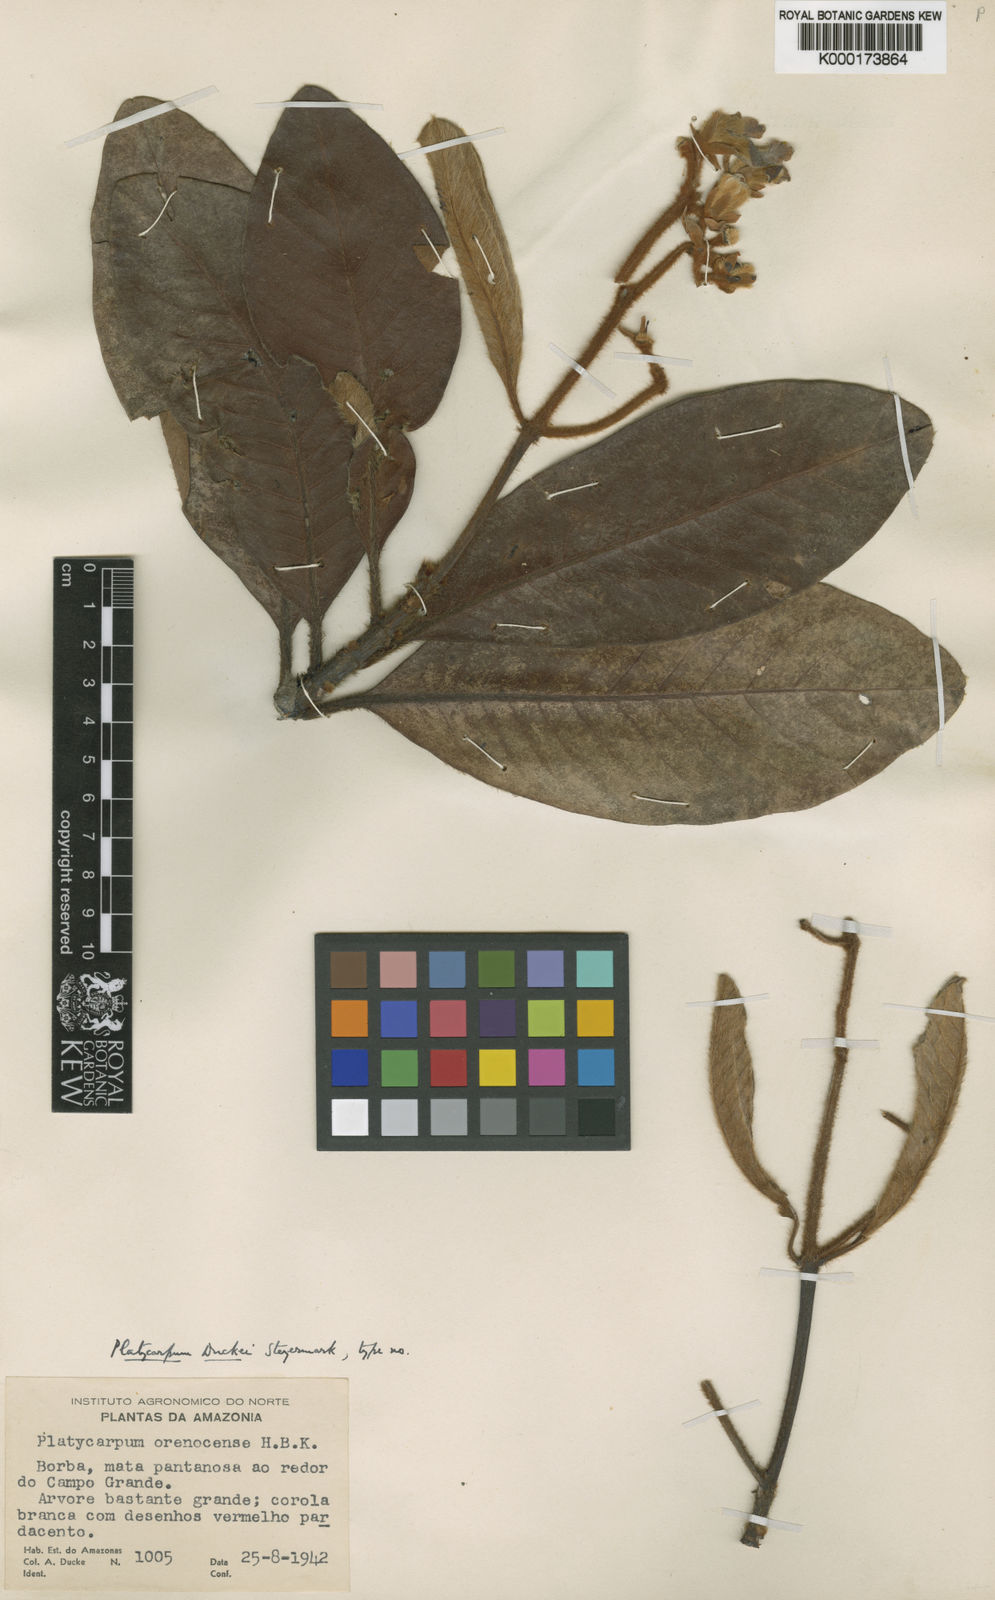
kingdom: Plantae
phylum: Tracheophyta
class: Magnoliopsida
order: Gentianales
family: Rubiaceae
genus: Platycarpum
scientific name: Platycarpum duckei
